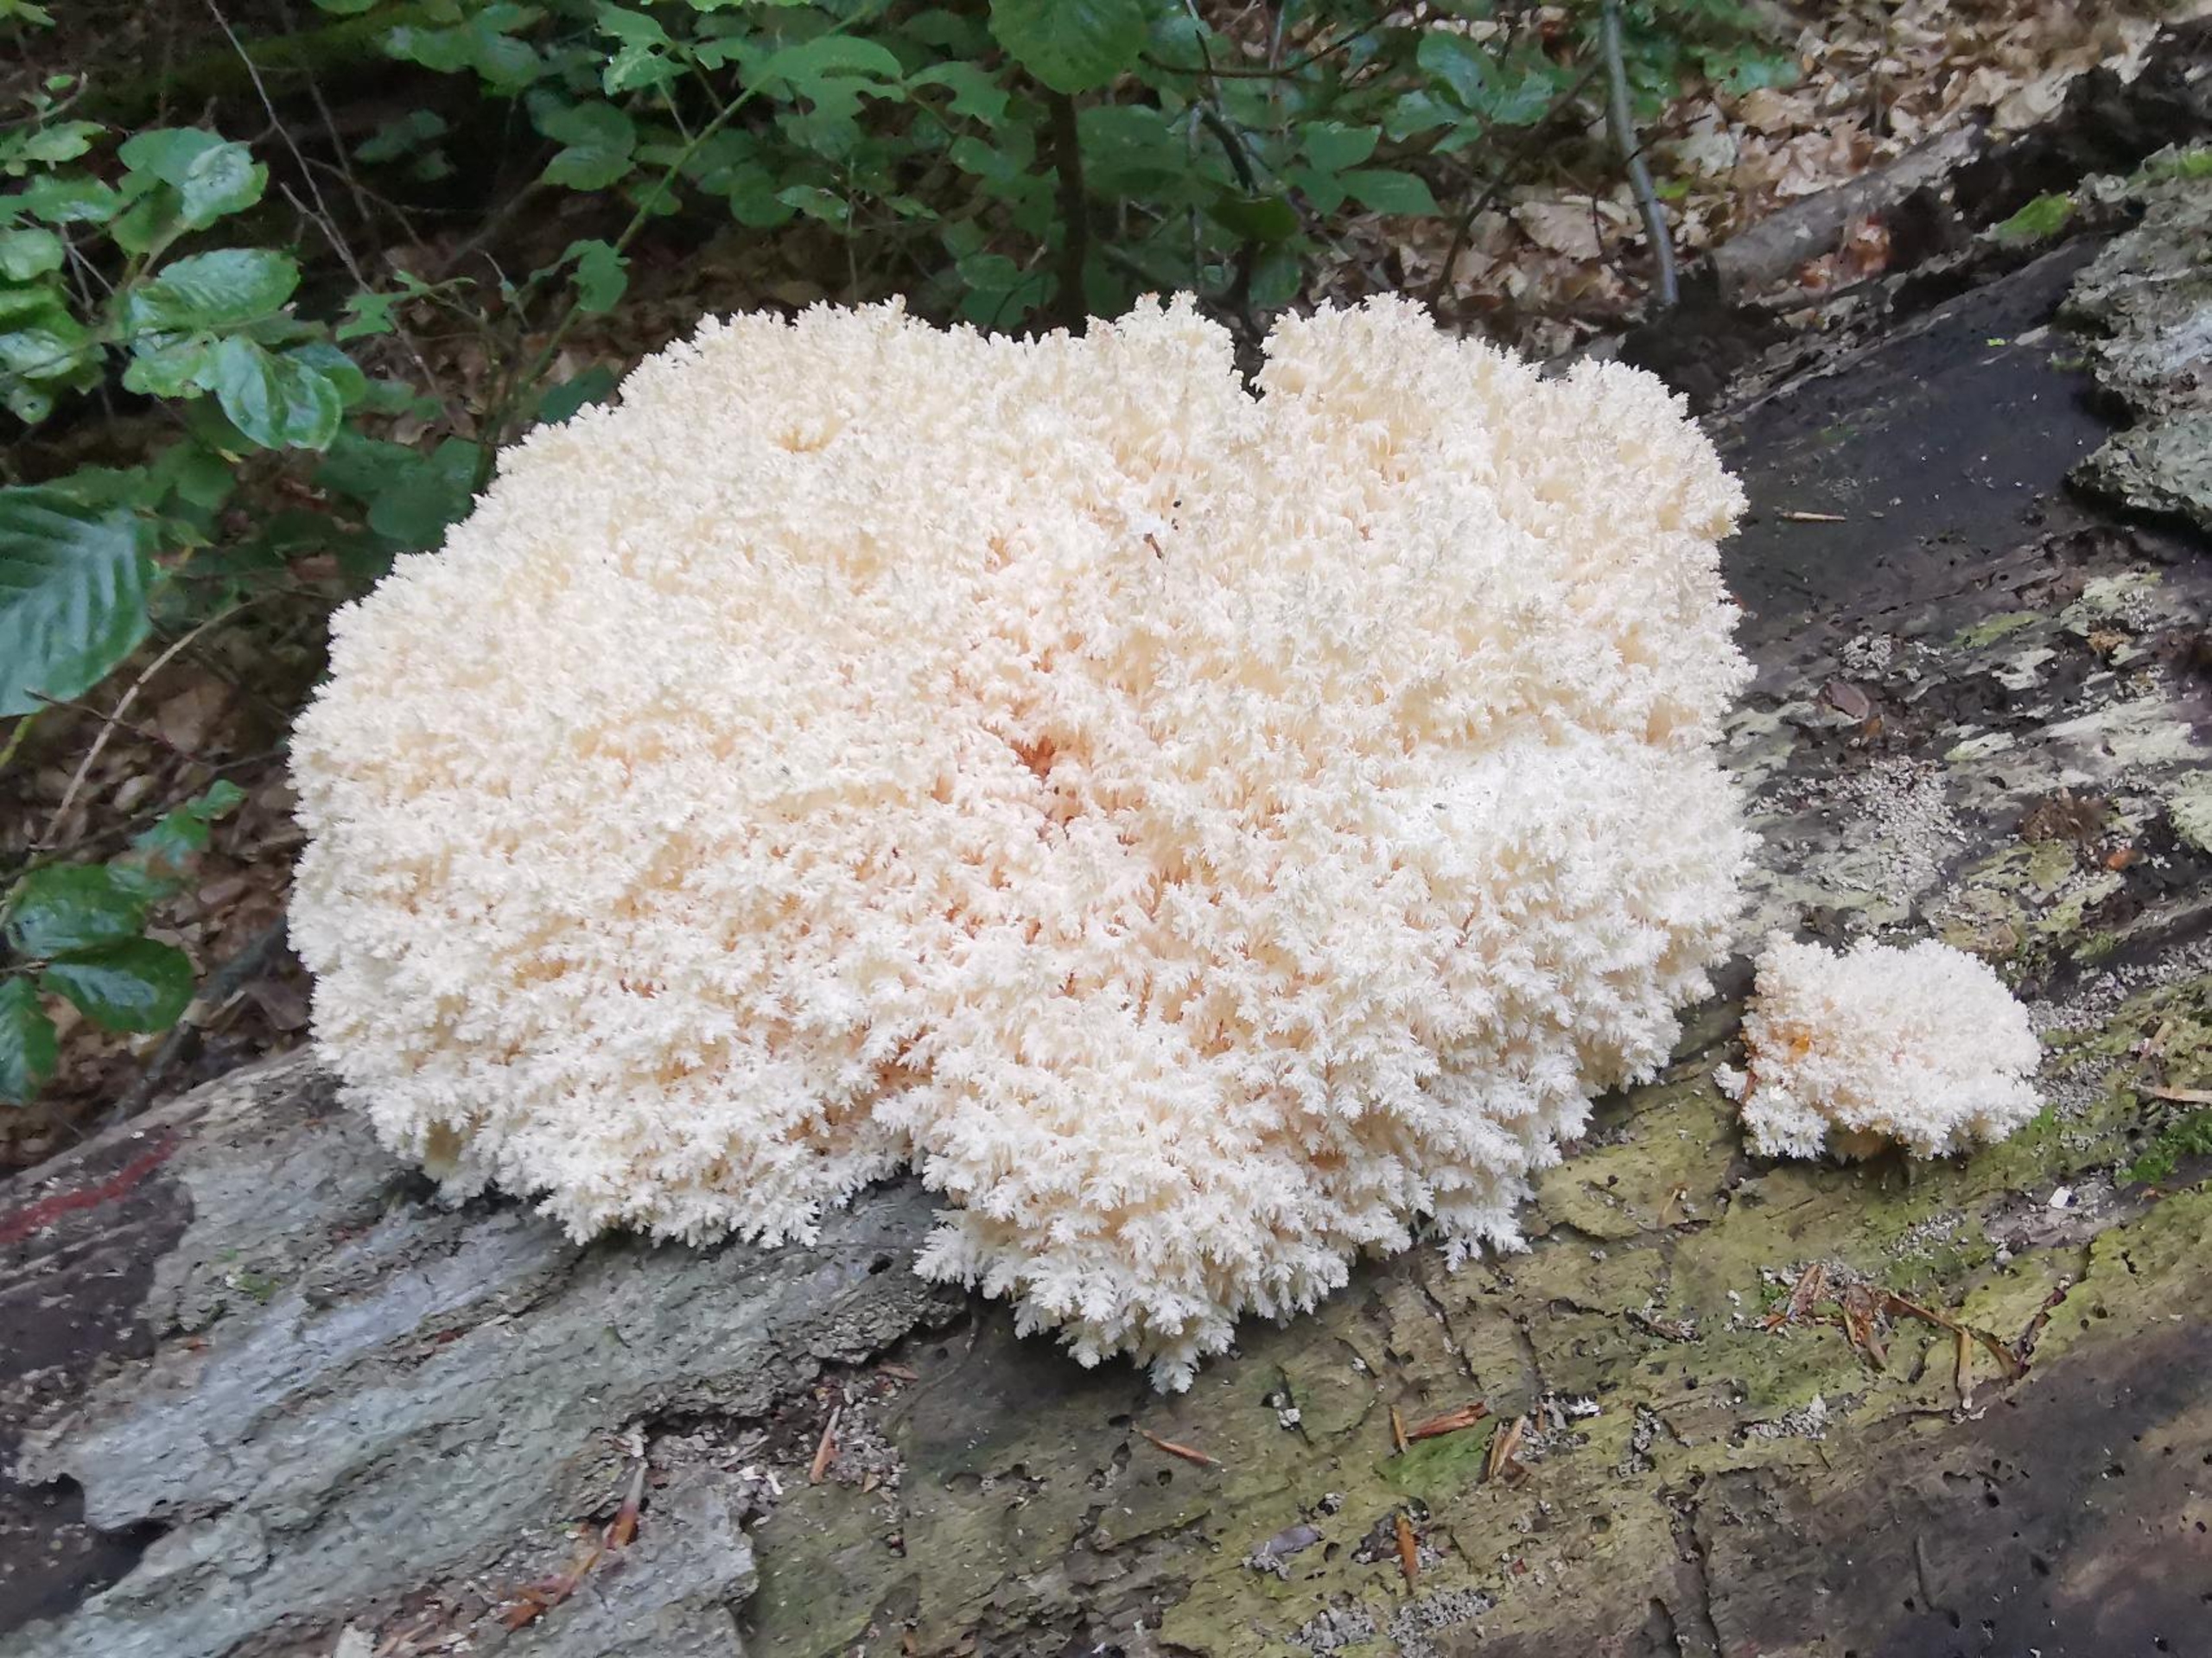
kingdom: Fungi
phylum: Basidiomycota
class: Agaricomycetes
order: Russulales
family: Hericiaceae
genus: Hericium
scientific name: Hericium coralloides
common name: Koralpigsvamp
